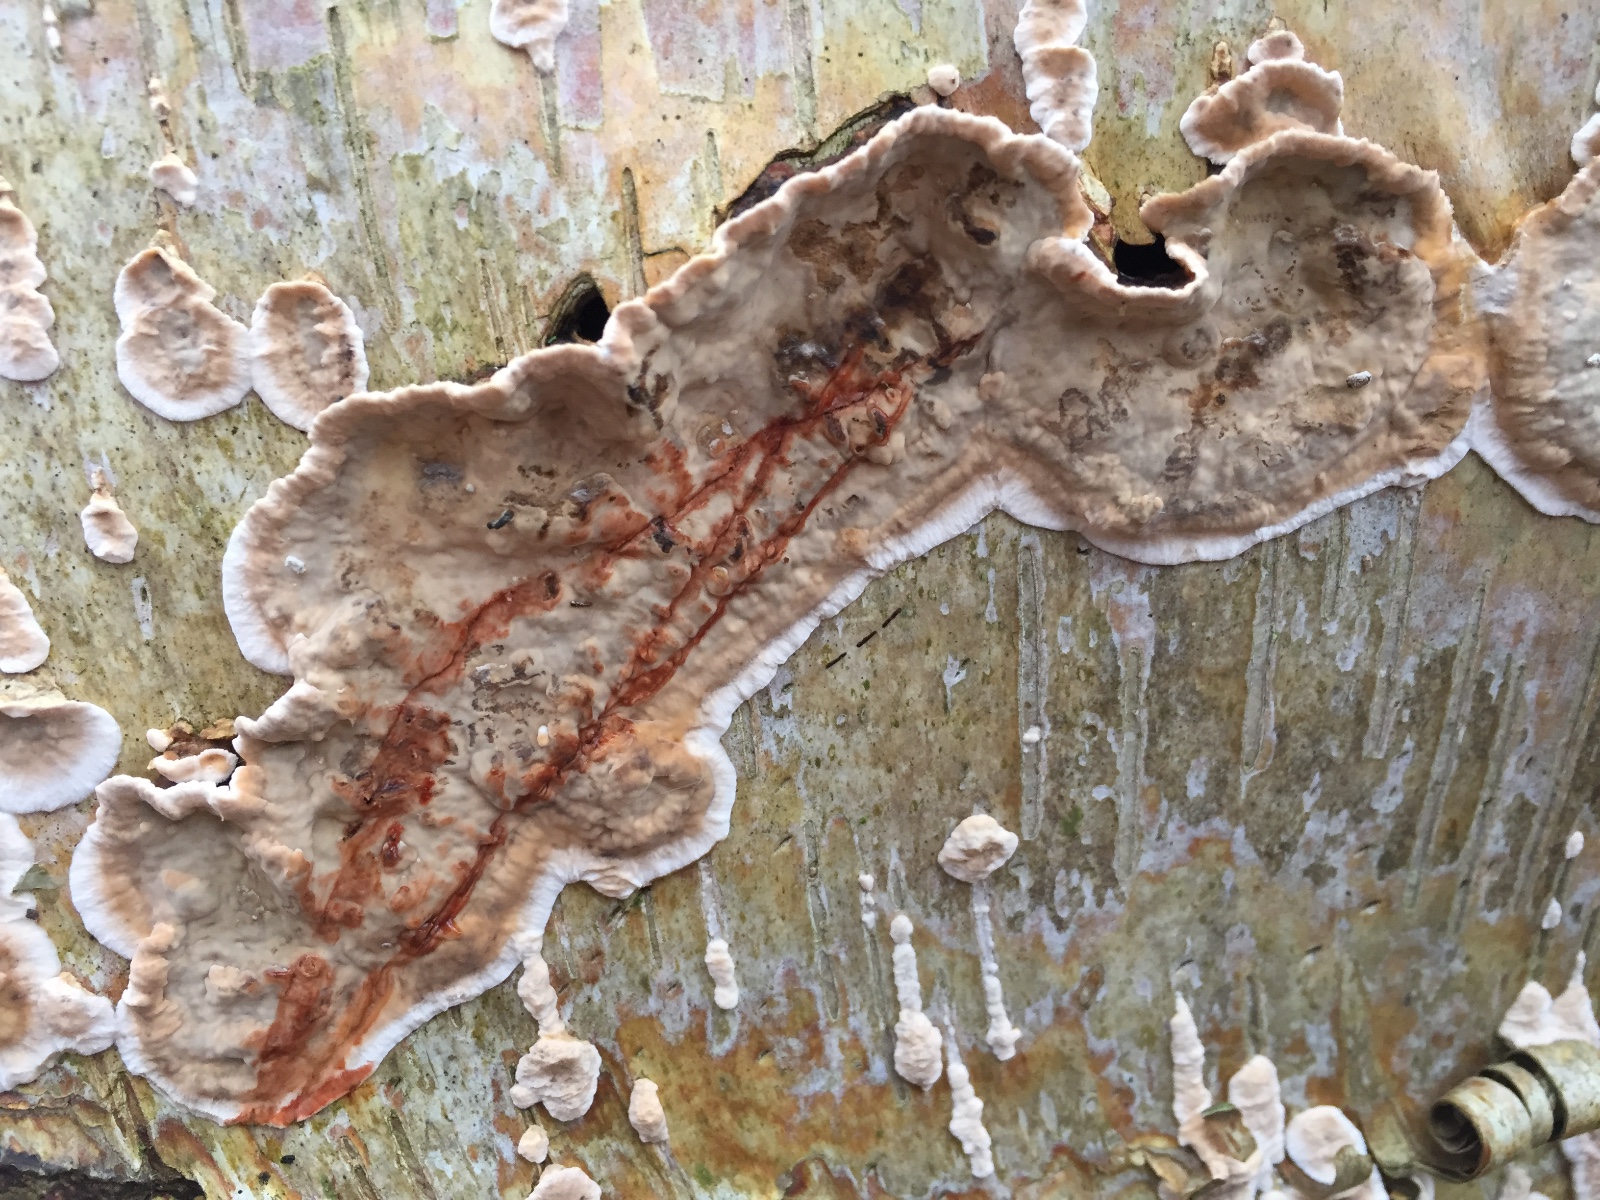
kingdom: Fungi
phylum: Basidiomycota
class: Agaricomycetes
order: Russulales
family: Stereaceae
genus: Stereum
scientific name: Stereum rugosum
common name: rynket lædersvamp
